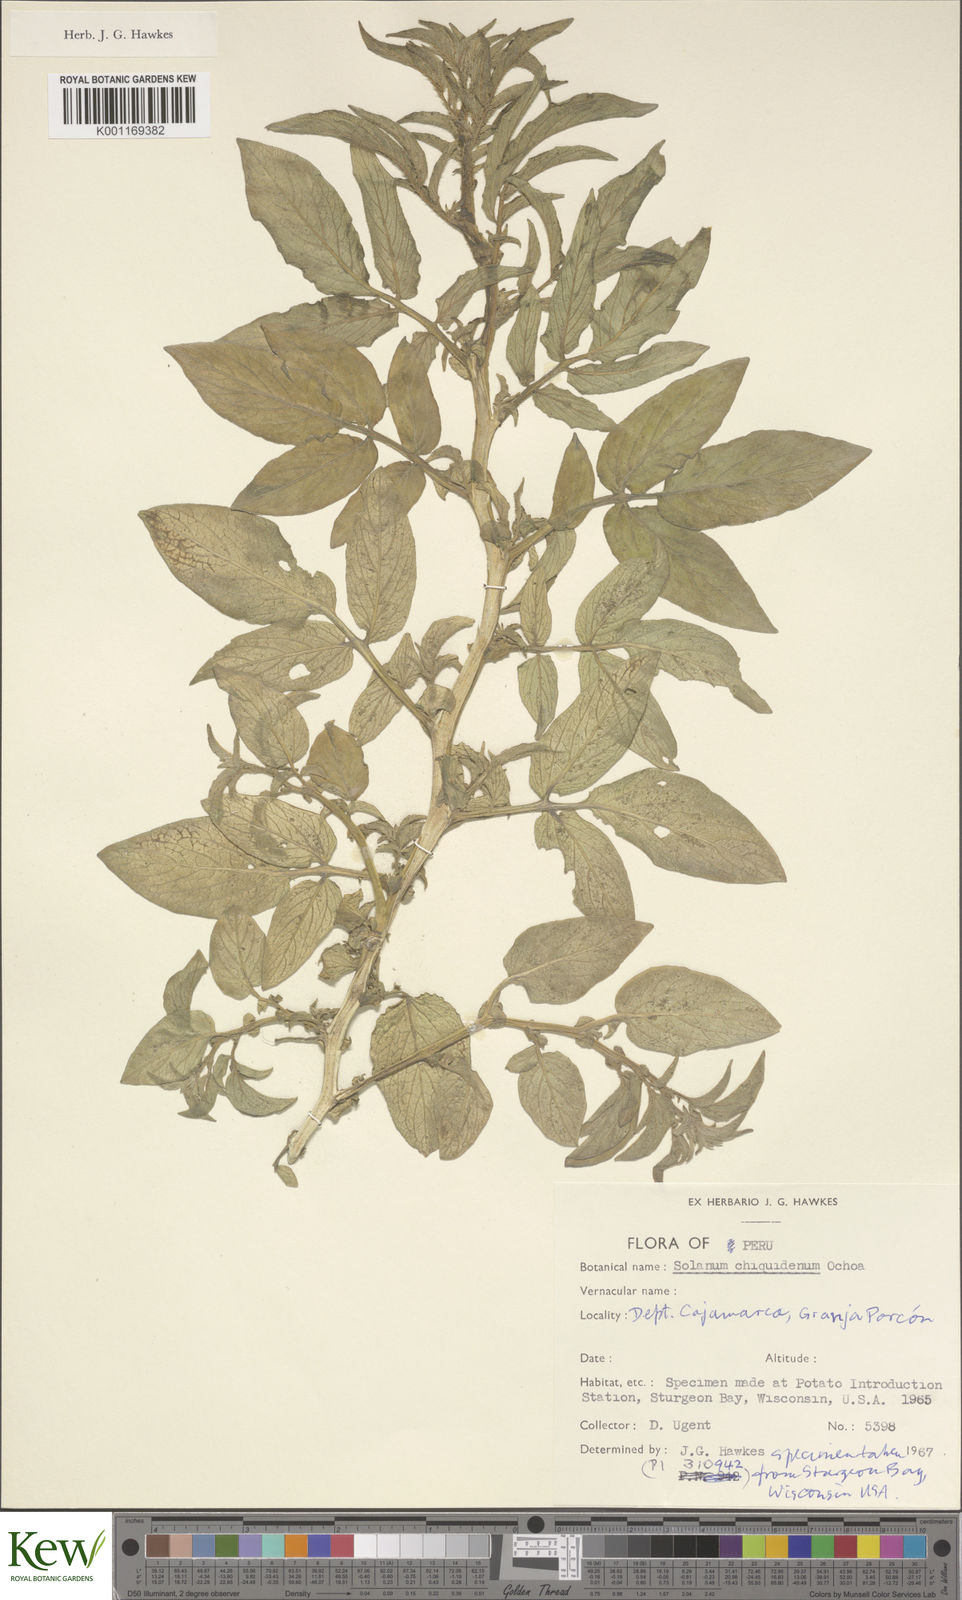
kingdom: Plantae
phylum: Tracheophyta
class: Magnoliopsida
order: Solanales
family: Solanaceae
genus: Solanum
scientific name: Solanum chiquidenum
